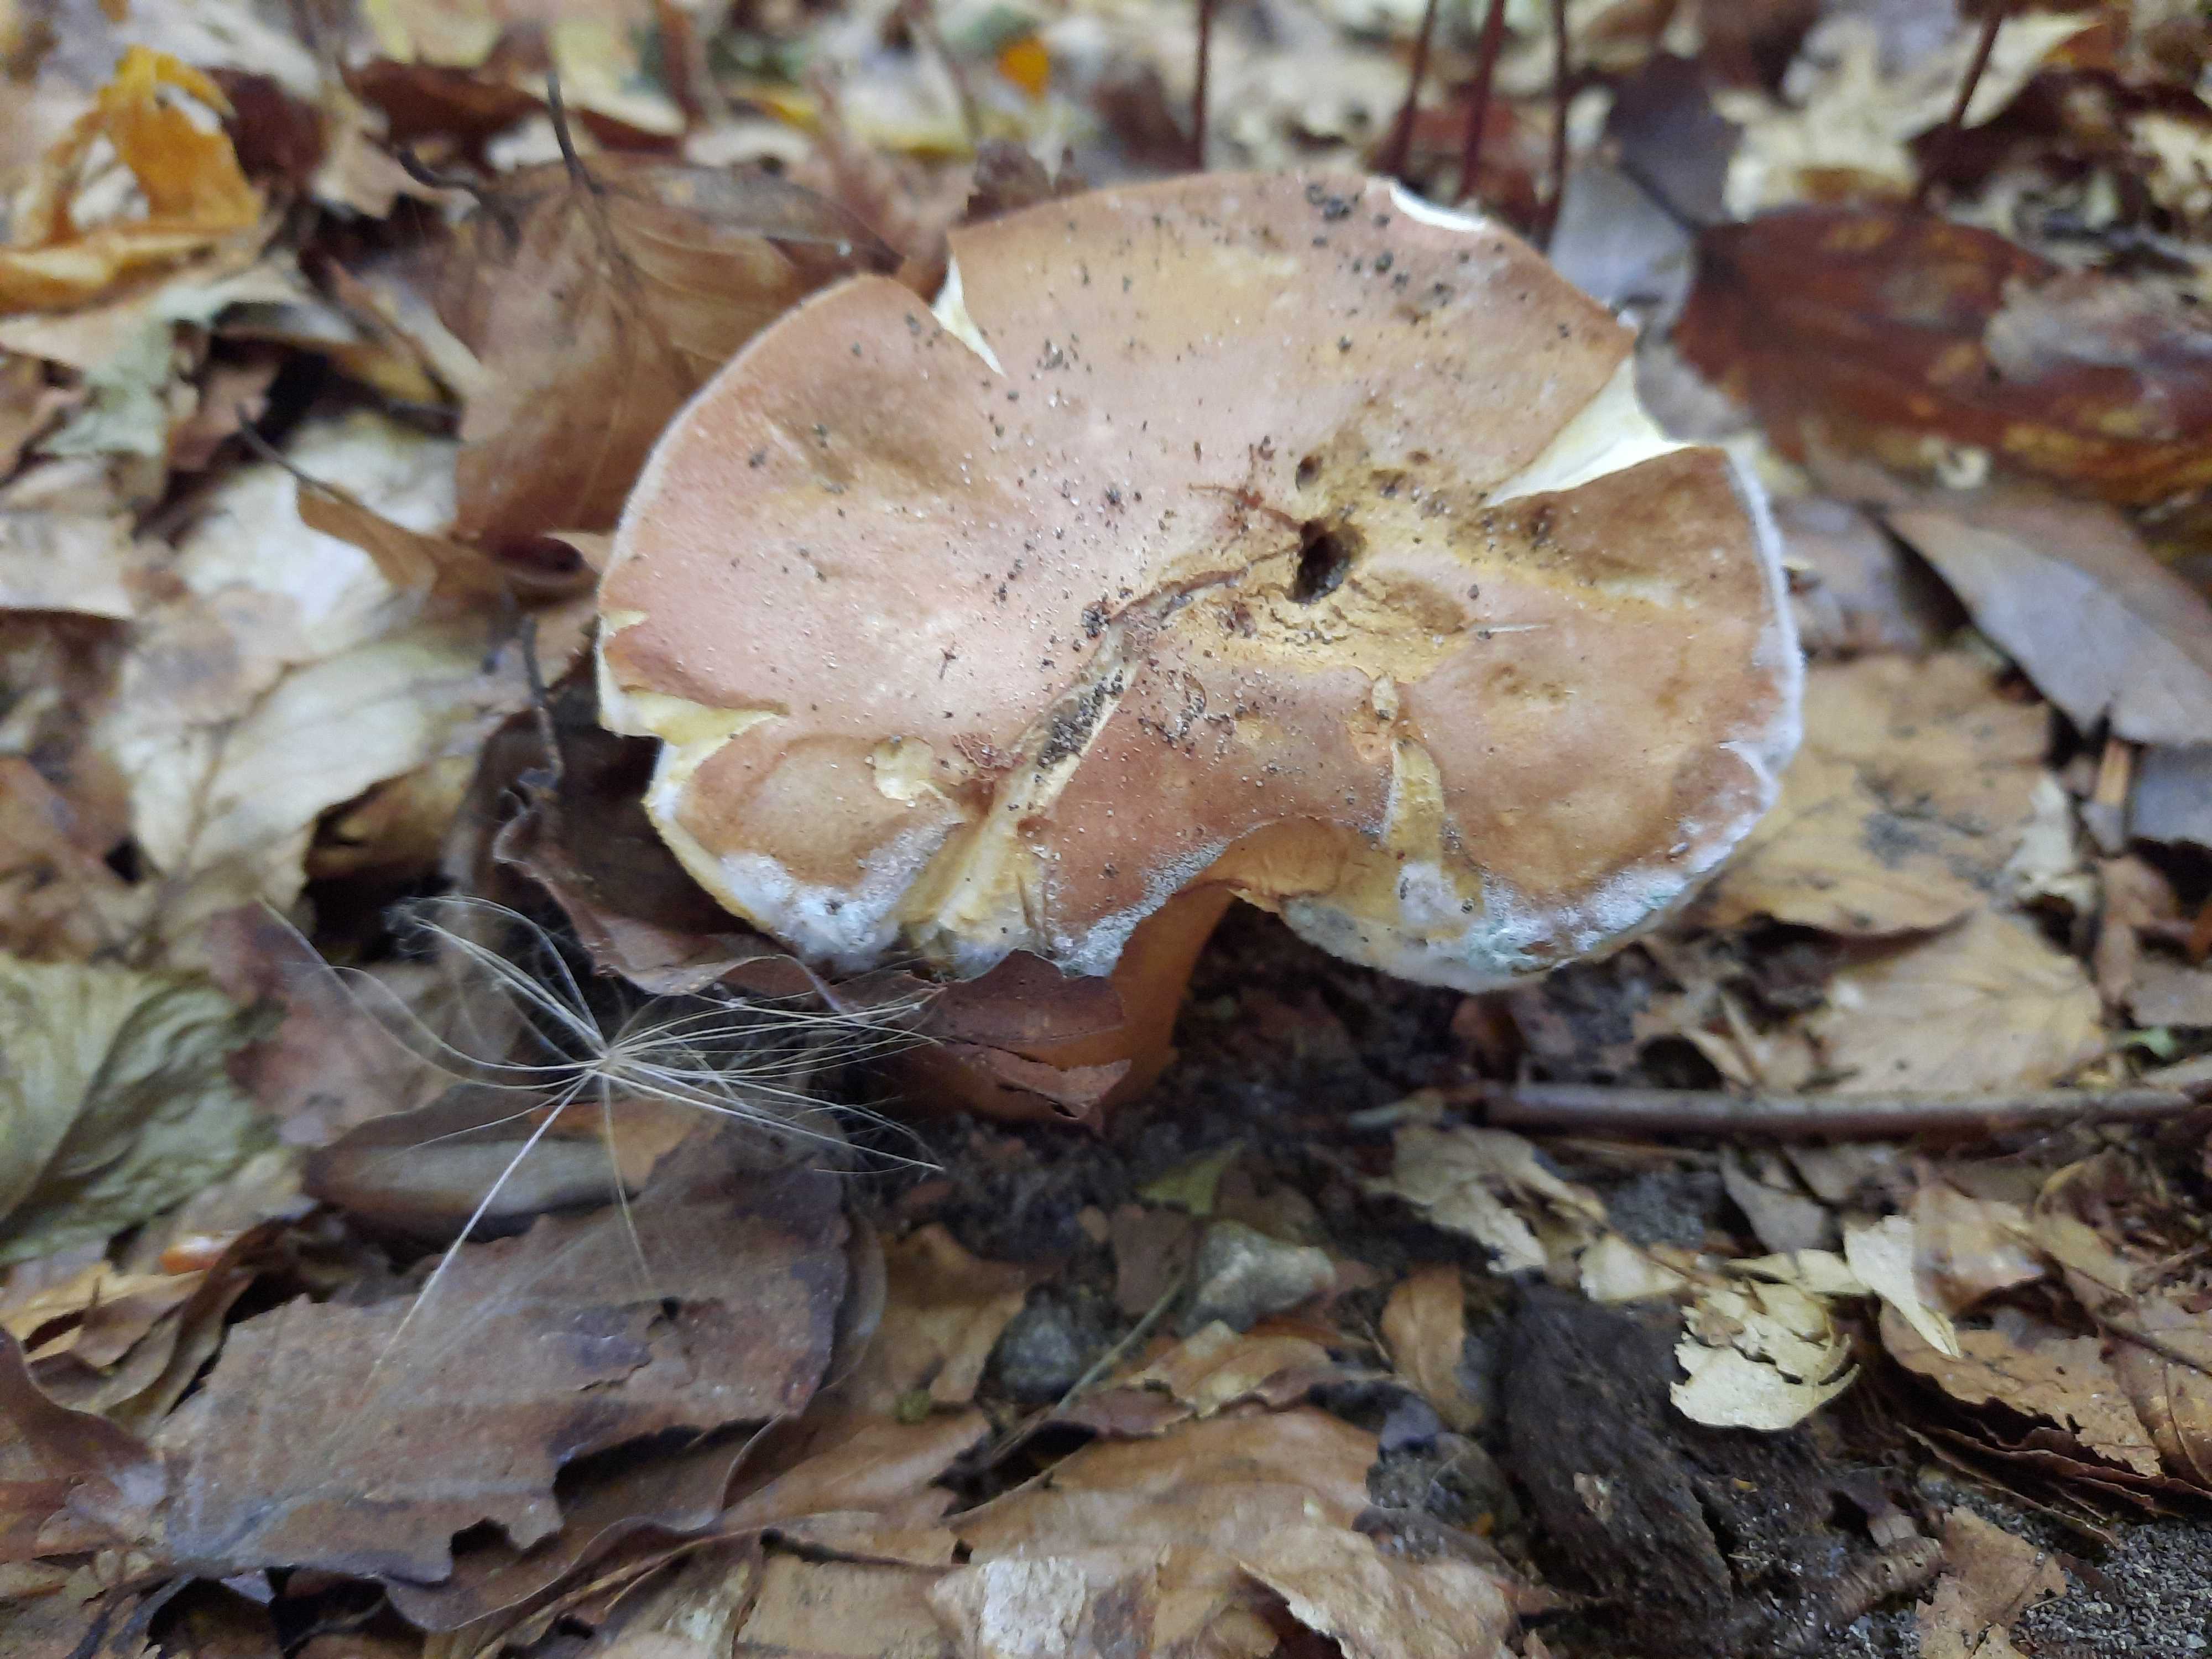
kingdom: Fungi
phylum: Basidiomycota
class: Agaricomycetes
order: Boletales
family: Gyroporaceae
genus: Gyroporus
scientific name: Gyroporus castaneus
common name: kastanie-kammerrørhat
